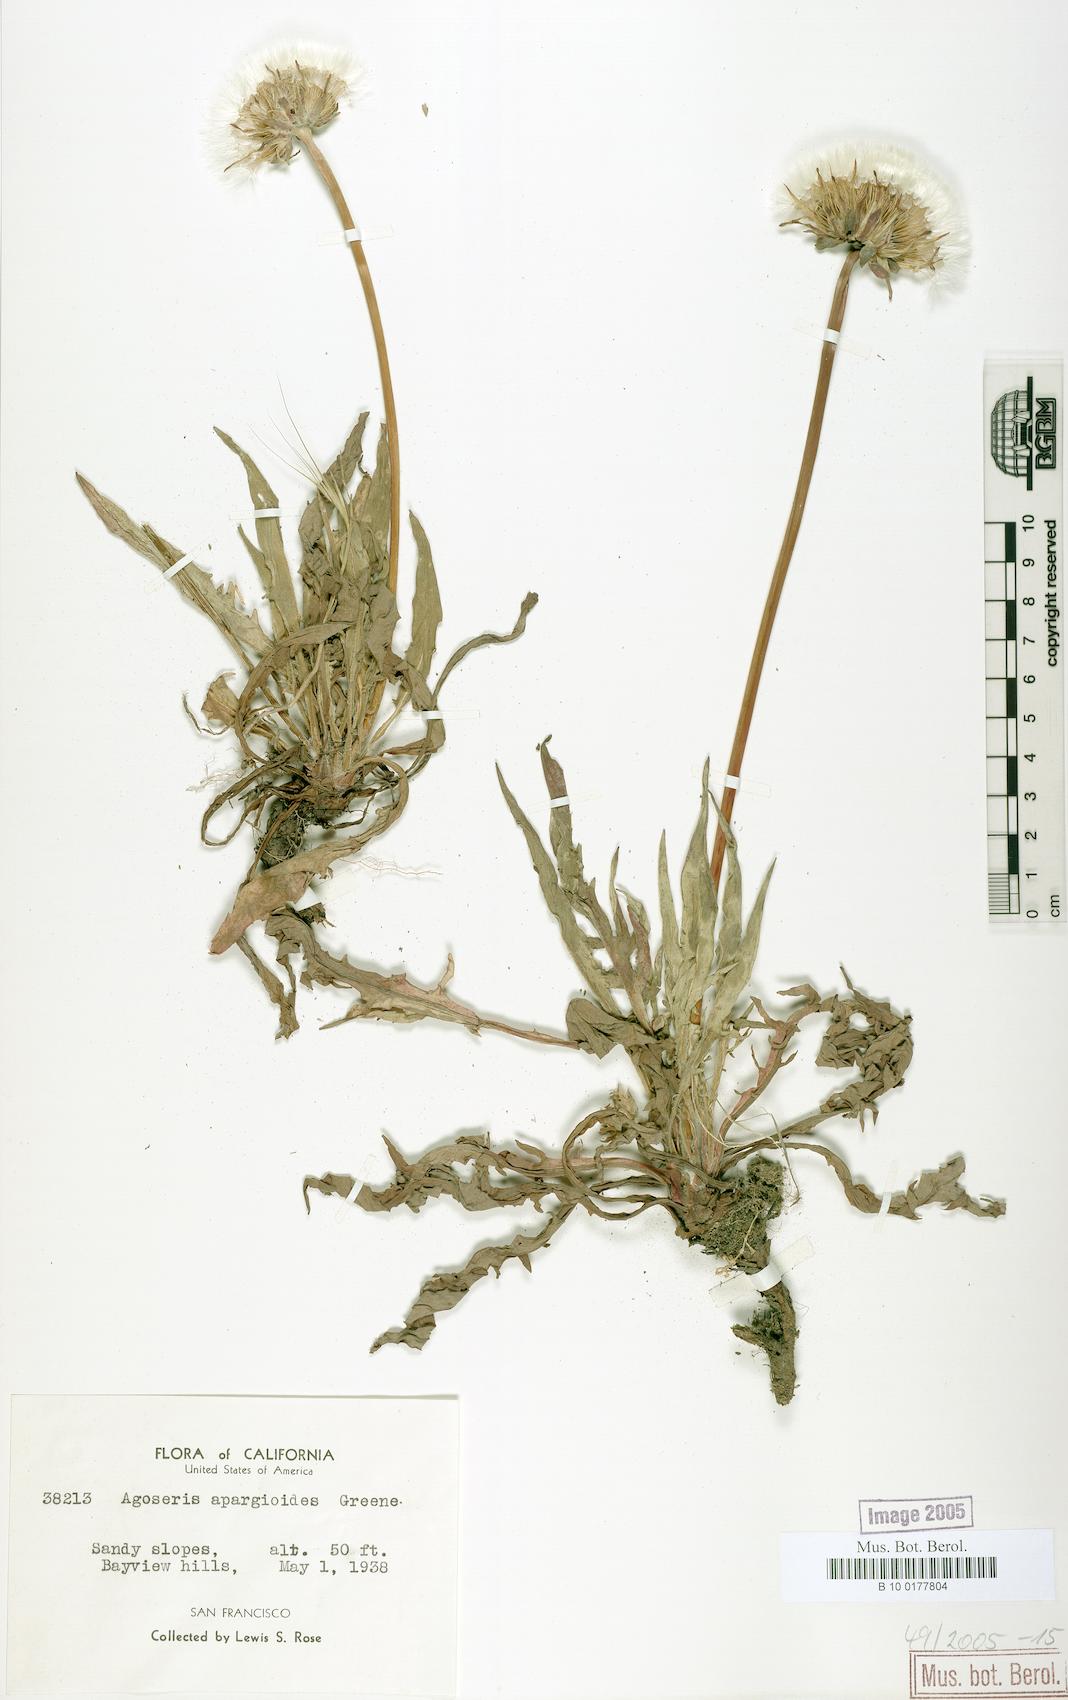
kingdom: Plantae
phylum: Tracheophyta
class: Magnoliopsida
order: Asterales
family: Asteraceae
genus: Agoseris
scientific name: Agoseris apargioides
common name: Point reyes agoseris
